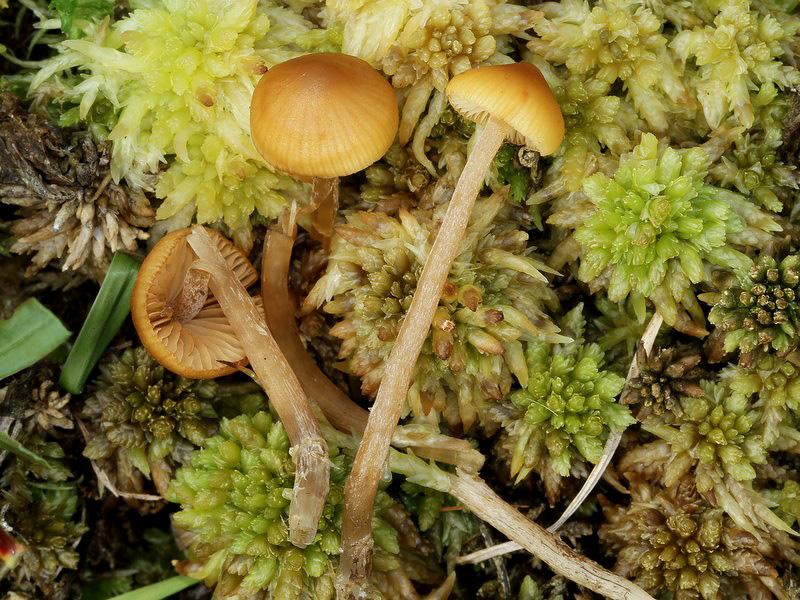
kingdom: Fungi
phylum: Basidiomycota
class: Agaricomycetes
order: Agaricales
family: Hymenogastraceae
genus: Galerina
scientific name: Galerina hybrida
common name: hængesæk-hjelmhat
